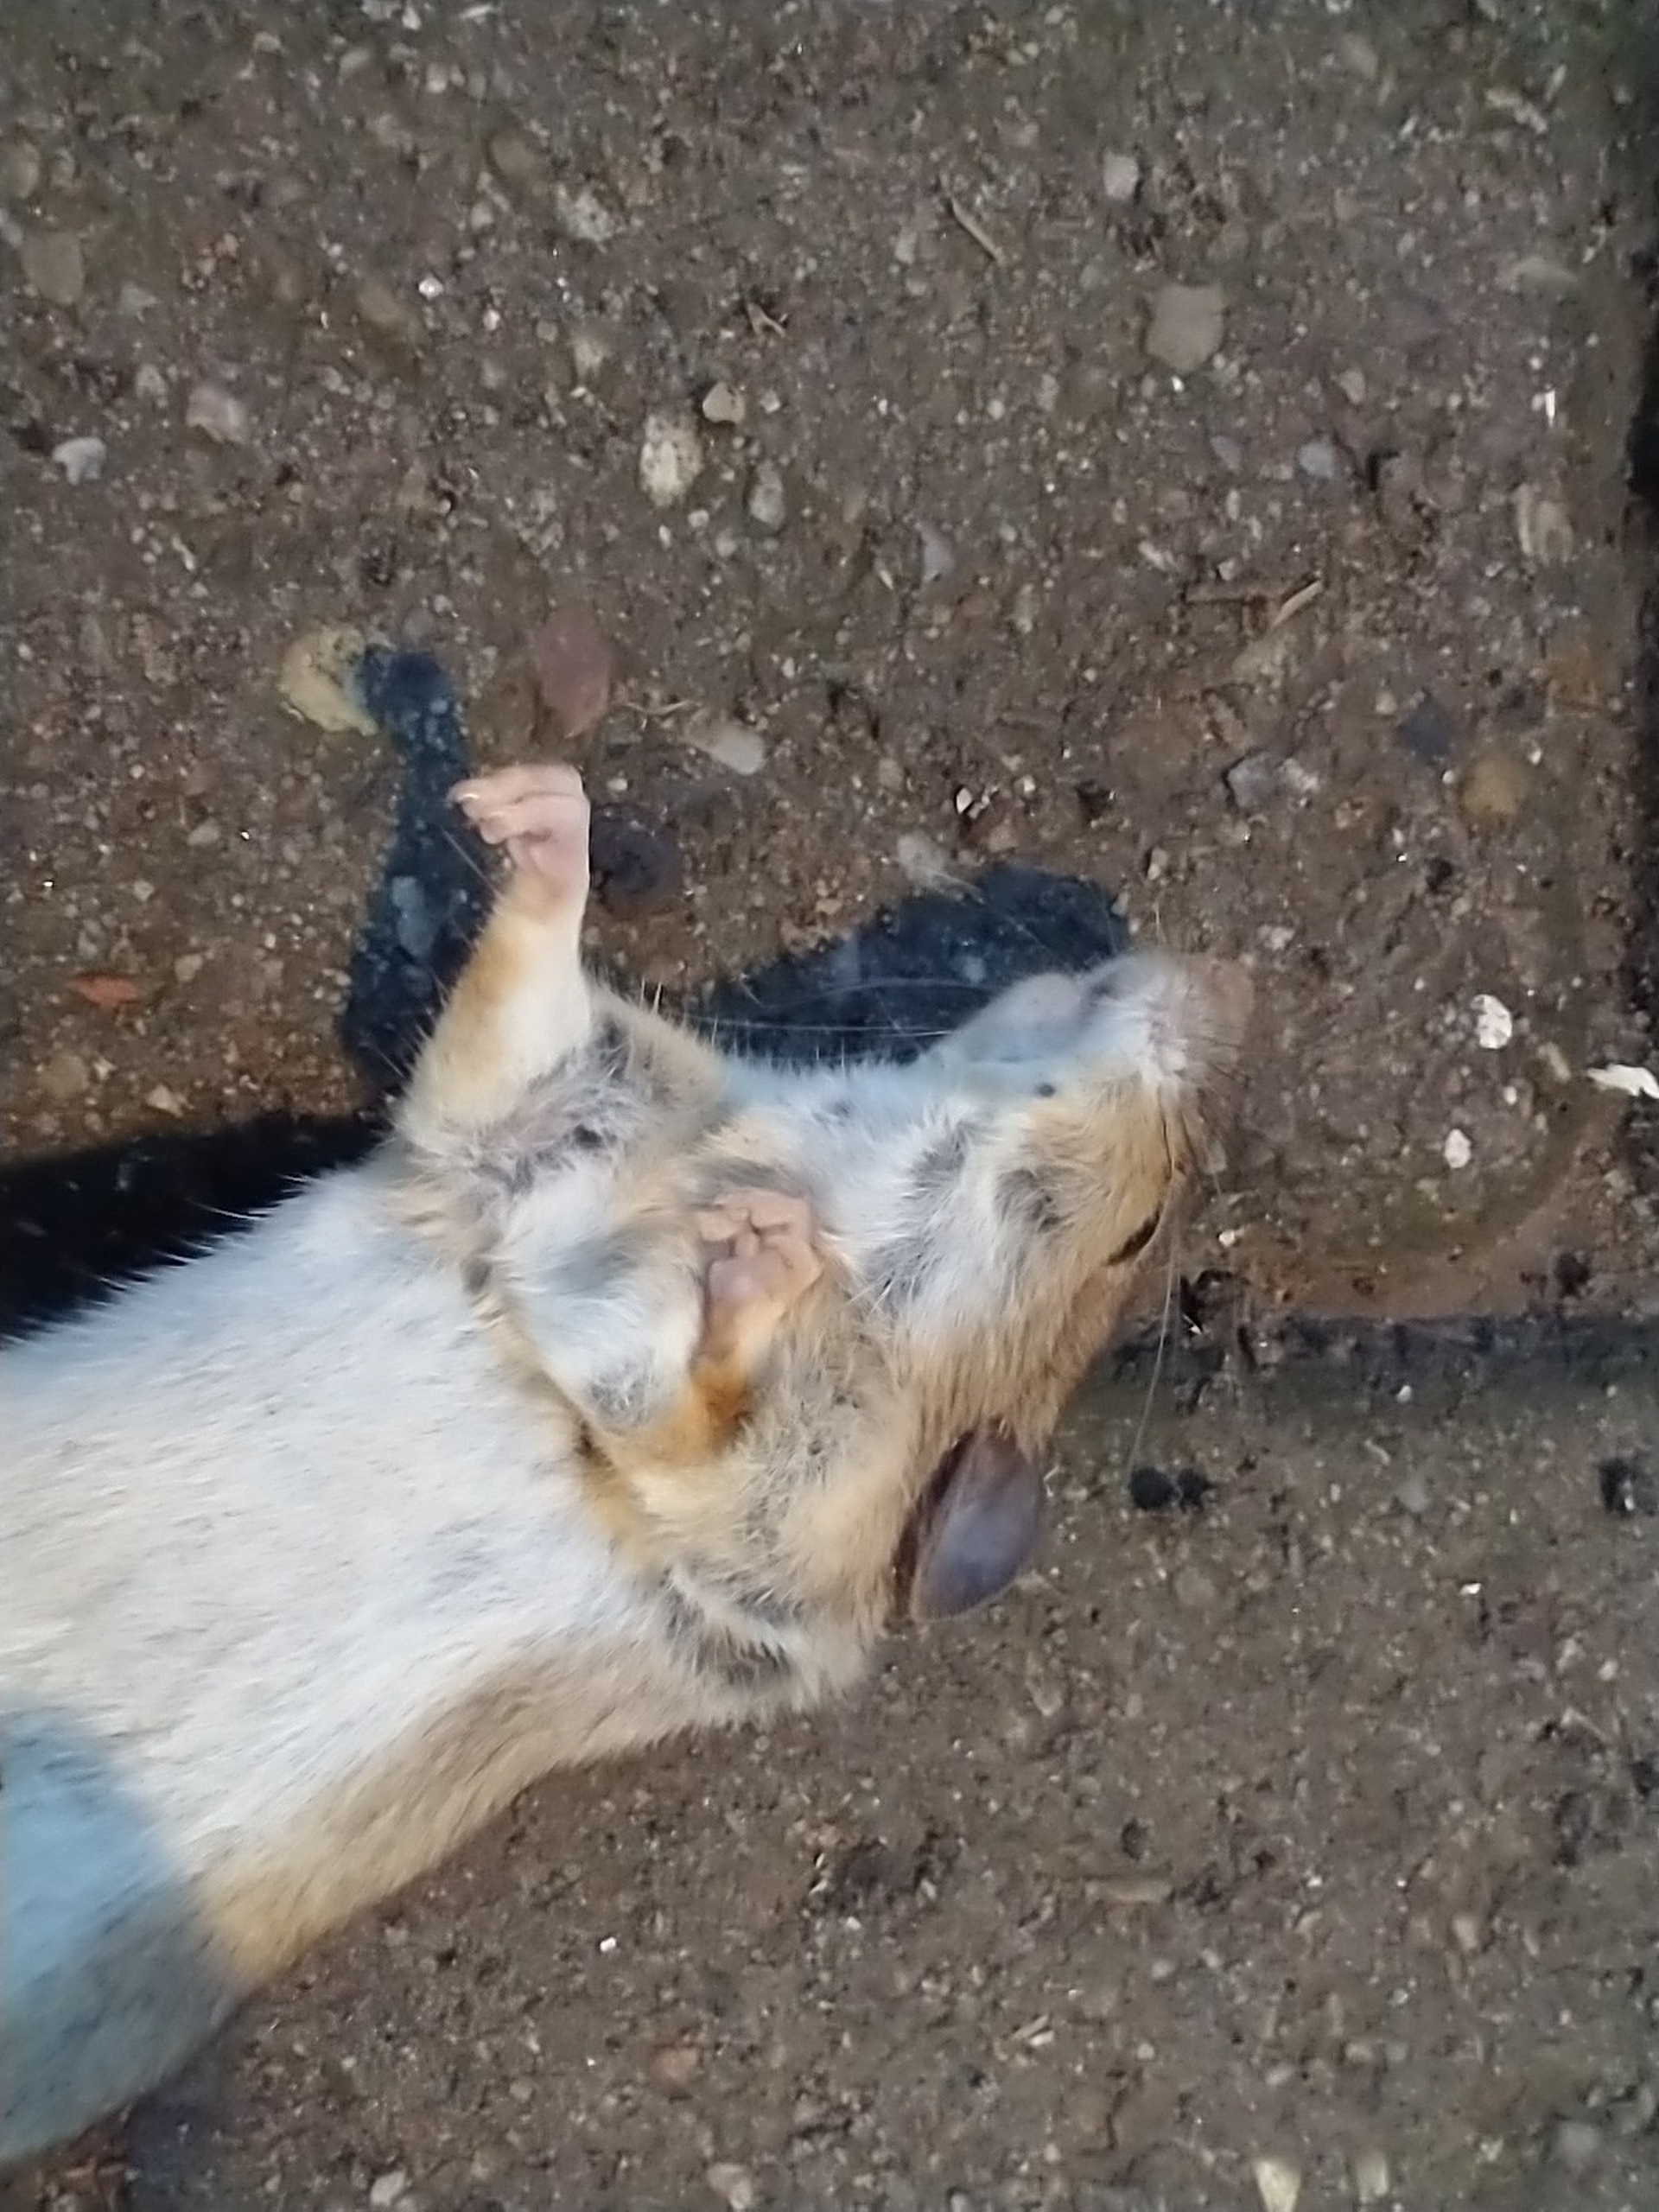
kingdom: Animalia
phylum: Chordata
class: Mammalia
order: Rodentia
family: Muridae
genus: Apodemus
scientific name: Apodemus flavicollis
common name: Halsbåndmus
